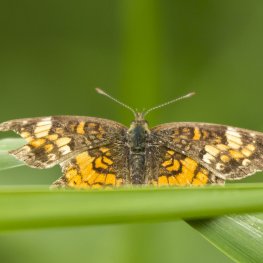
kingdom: Animalia
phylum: Arthropoda
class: Insecta
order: Lepidoptera
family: Nymphalidae
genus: Phyciodes
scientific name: Phyciodes tharos
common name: Northern Crescent
